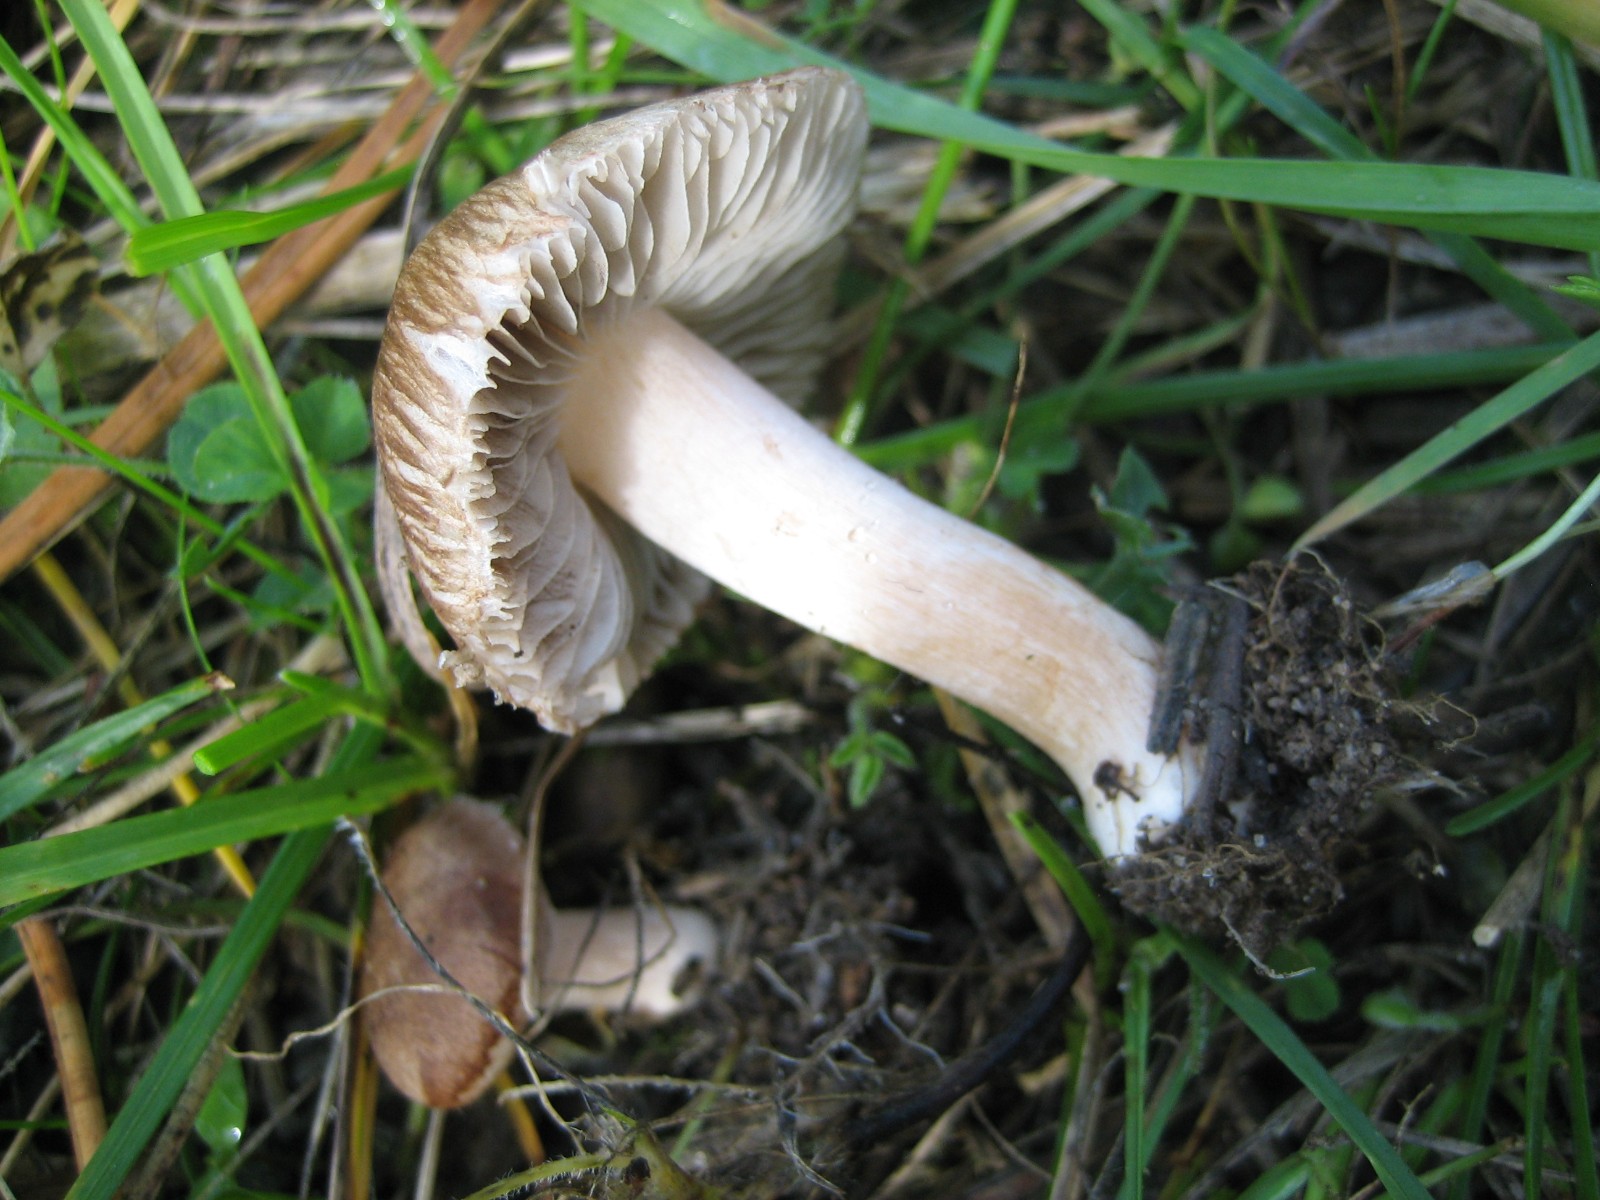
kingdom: Fungi
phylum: Basidiomycota
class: Agaricomycetes
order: Agaricales
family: Inocybaceae
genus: Inocybe
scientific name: Inocybe
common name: trævlhat
